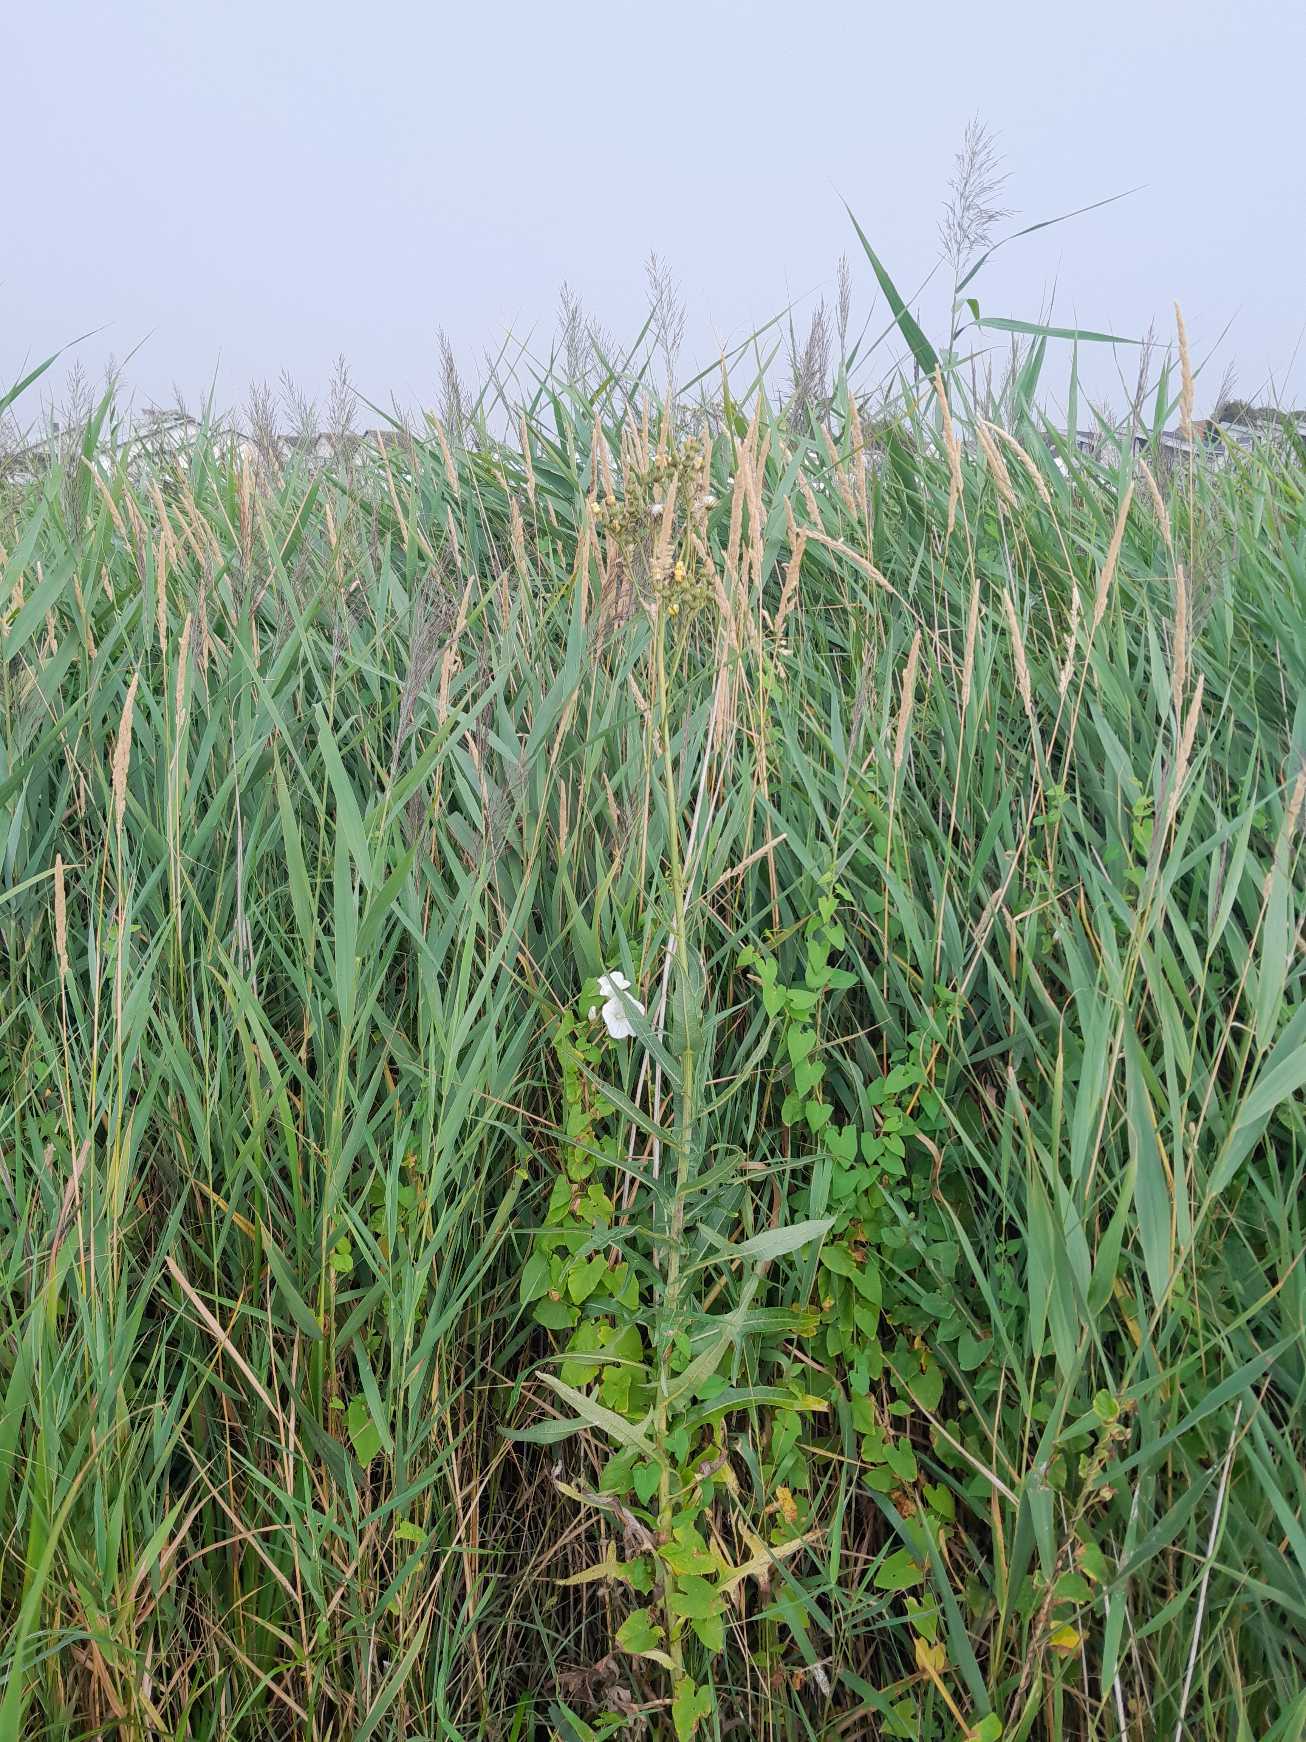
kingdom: Plantae
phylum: Tracheophyta
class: Magnoliopsida
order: Asterales
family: Asteraceae
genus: Sonchus
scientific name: Sonchus palustris
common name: Kær-svinemælk
